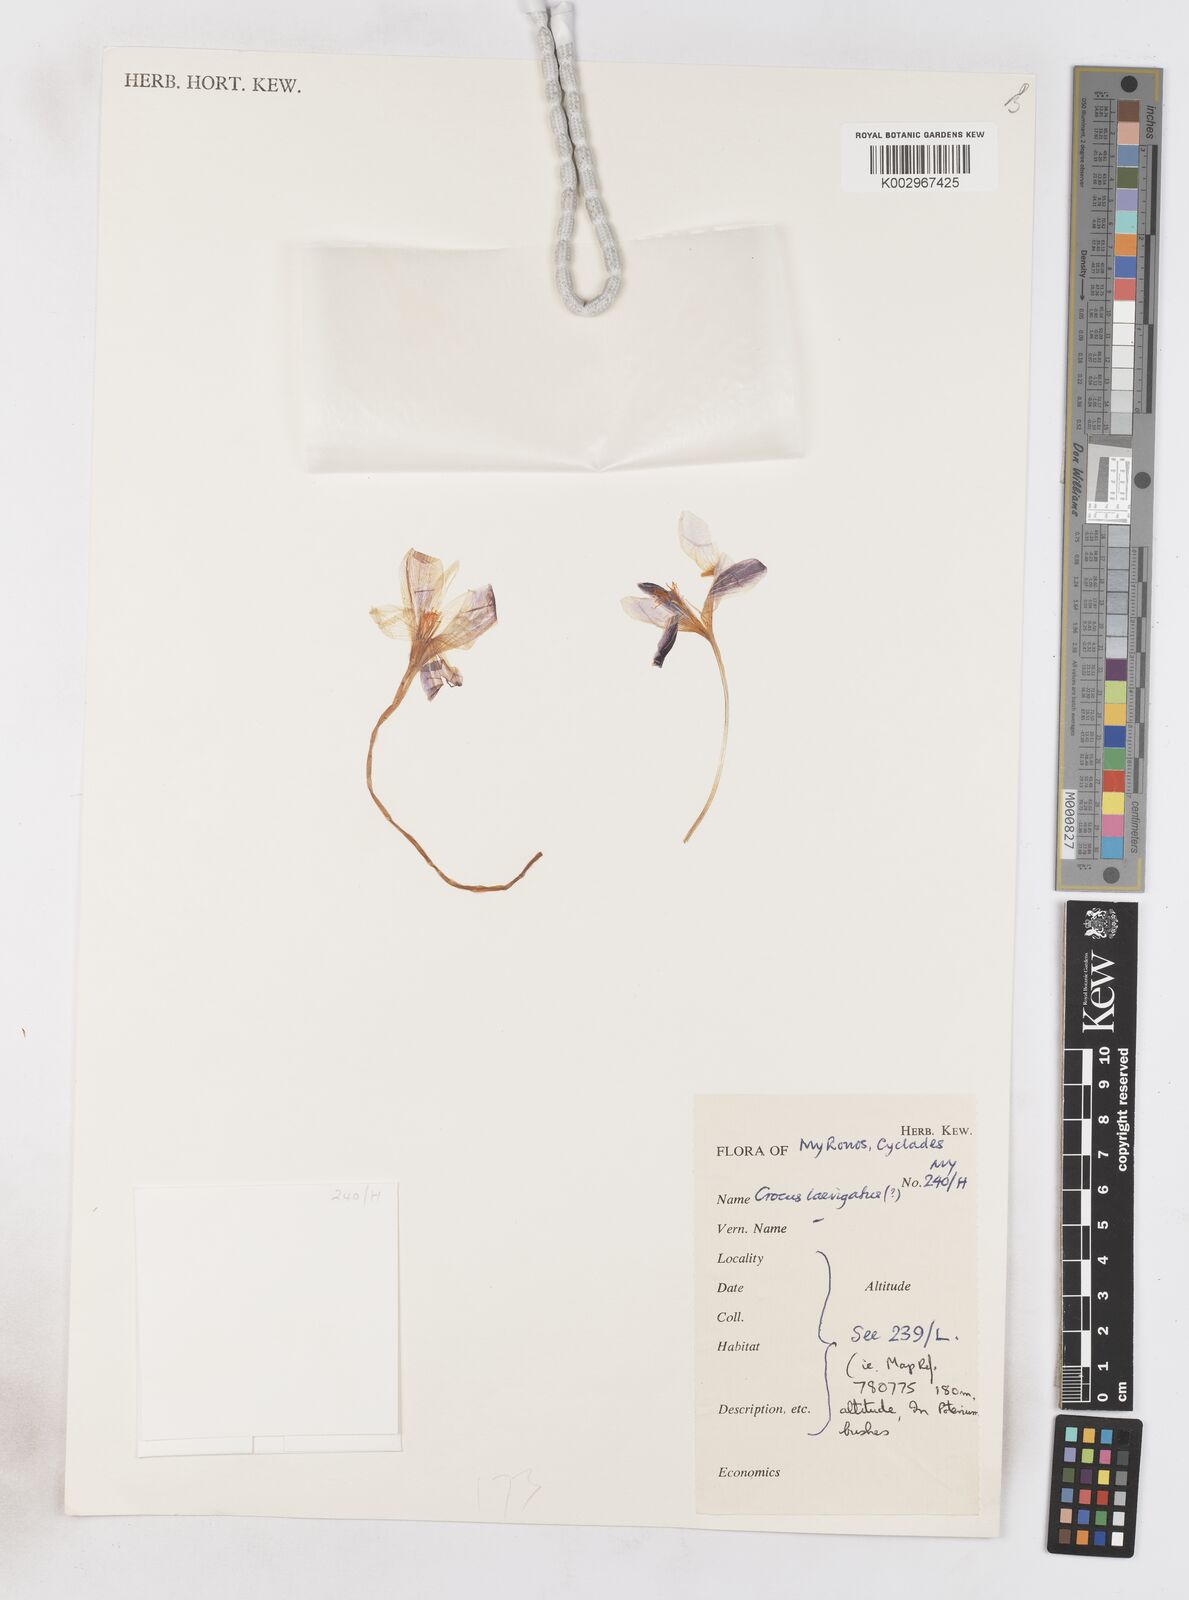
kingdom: Plantae
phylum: Tracheophyta
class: Liliopsida
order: Asparagales
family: Iridaceae
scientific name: Iridaceae
